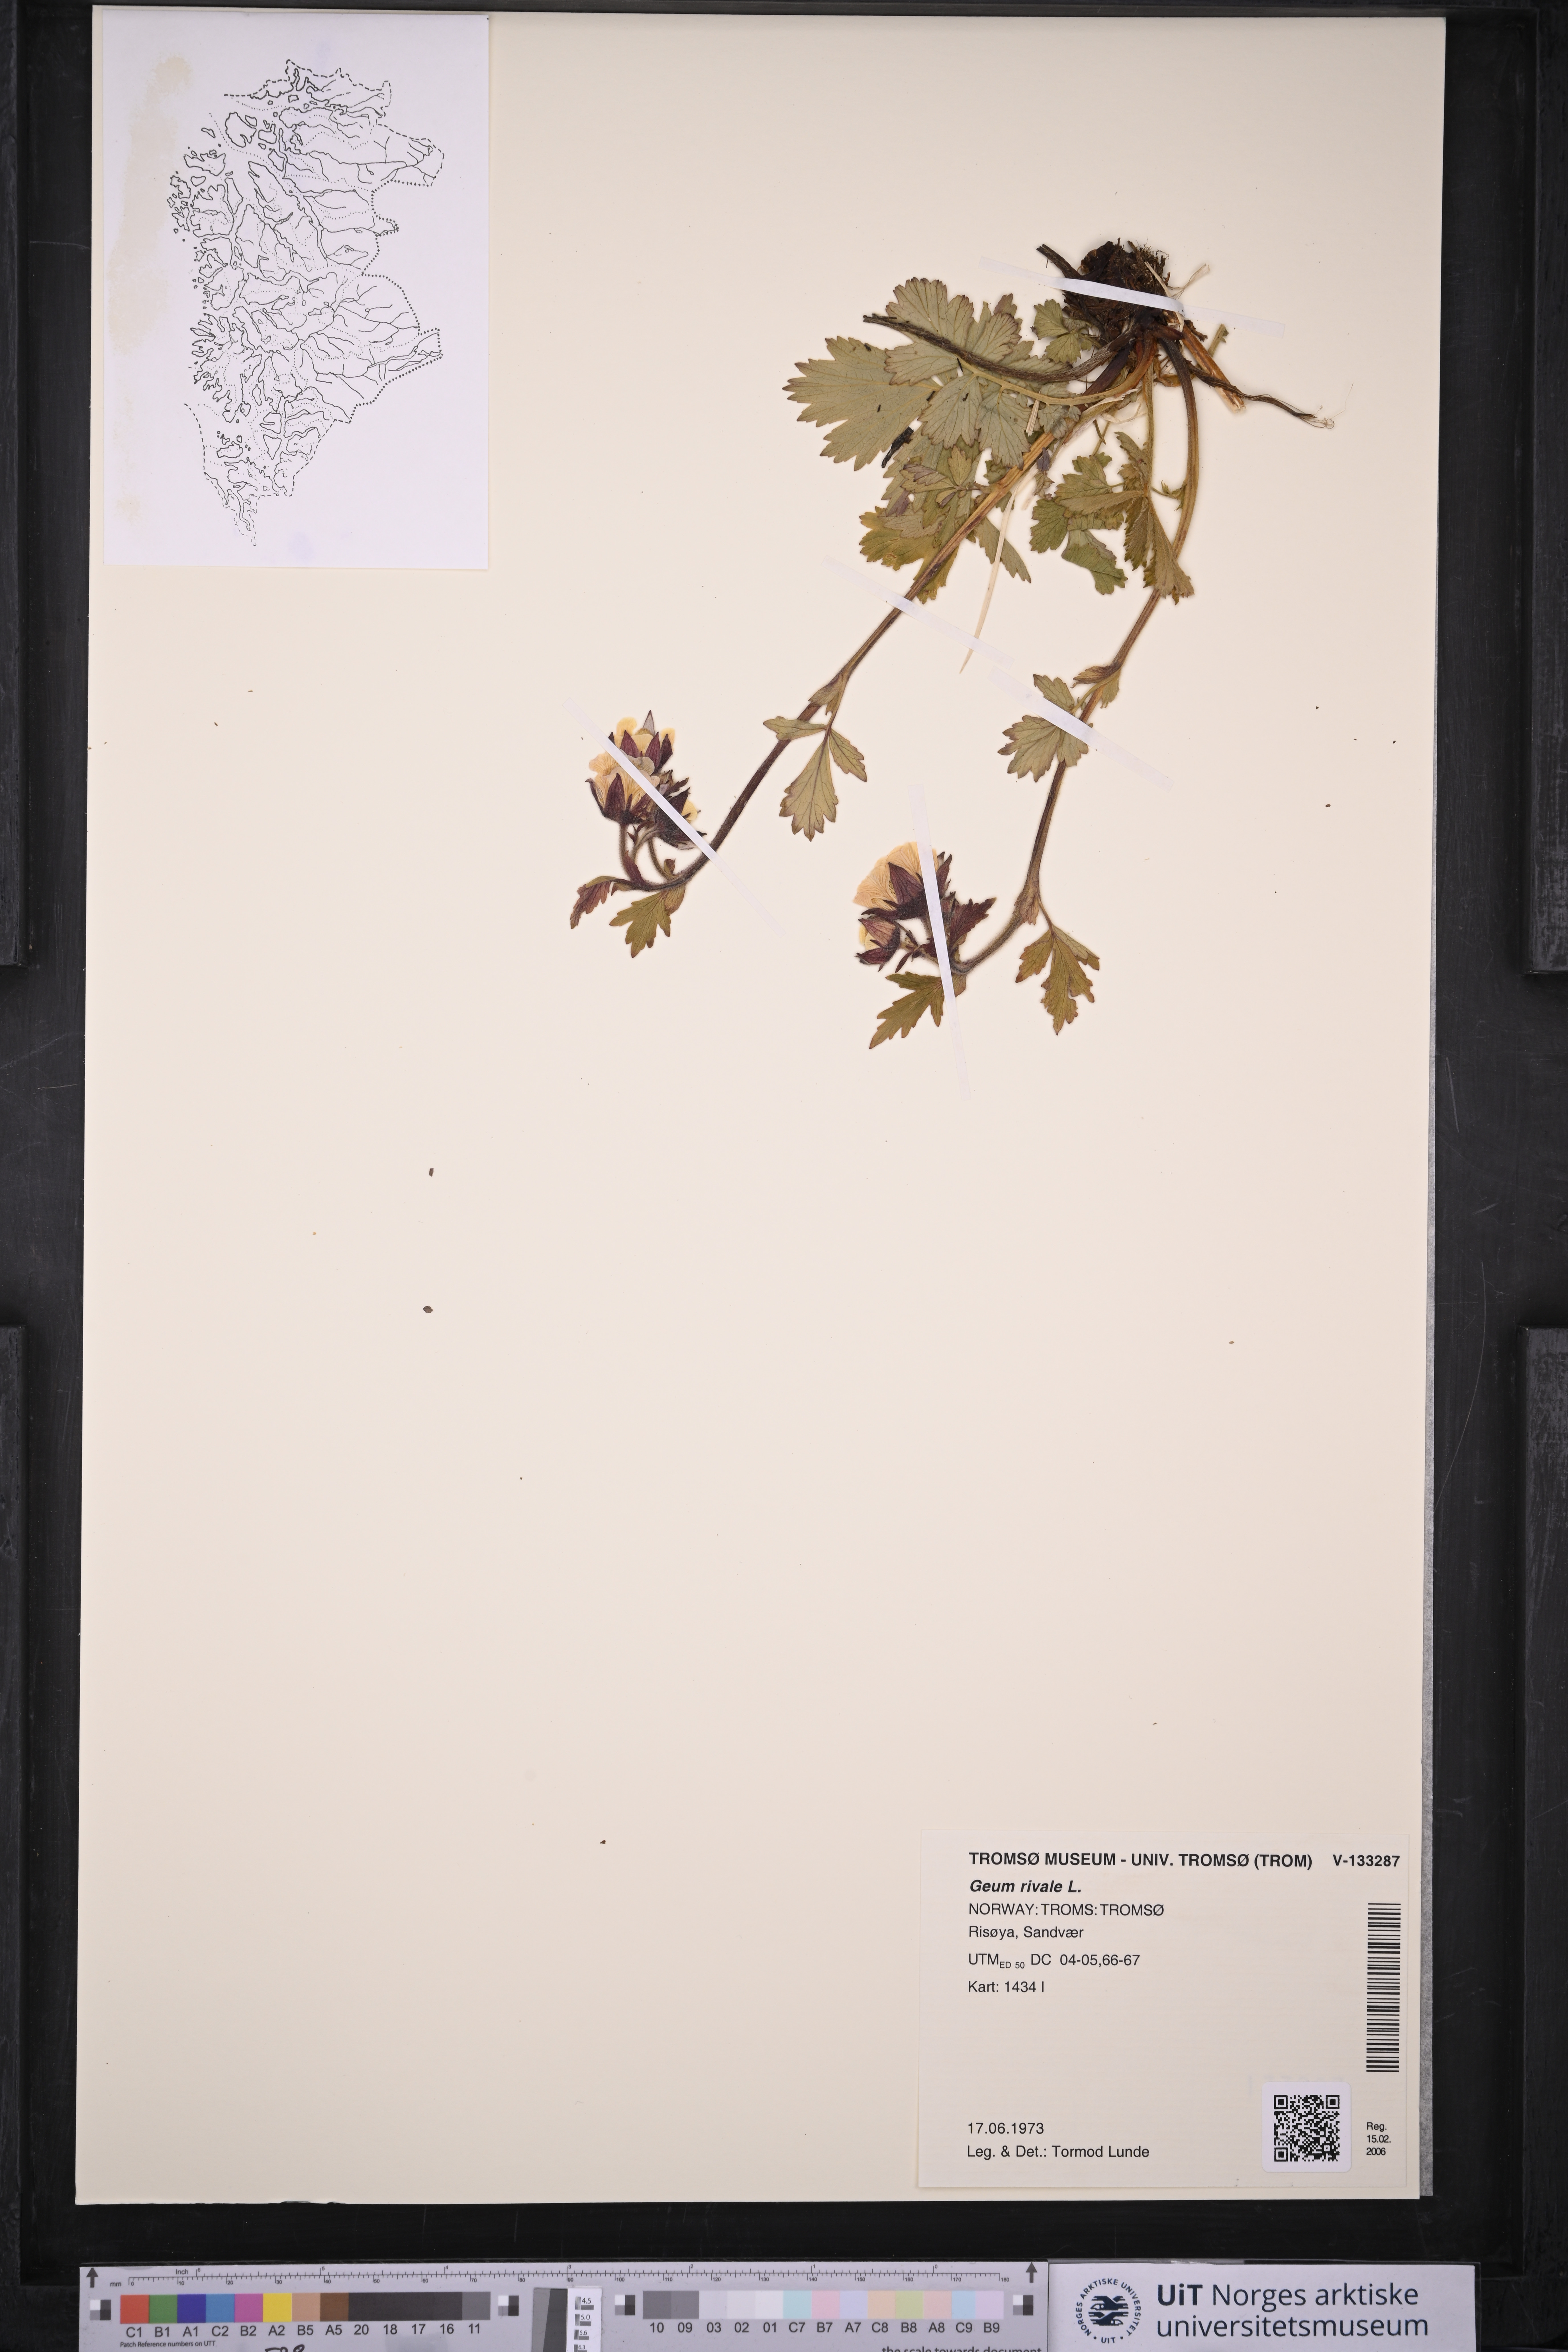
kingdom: Plantae
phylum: Tracheophyta
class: Magnoliopsida
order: Rosales
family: Rosaceae
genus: Geum
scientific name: Geum rivale
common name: Water avens
